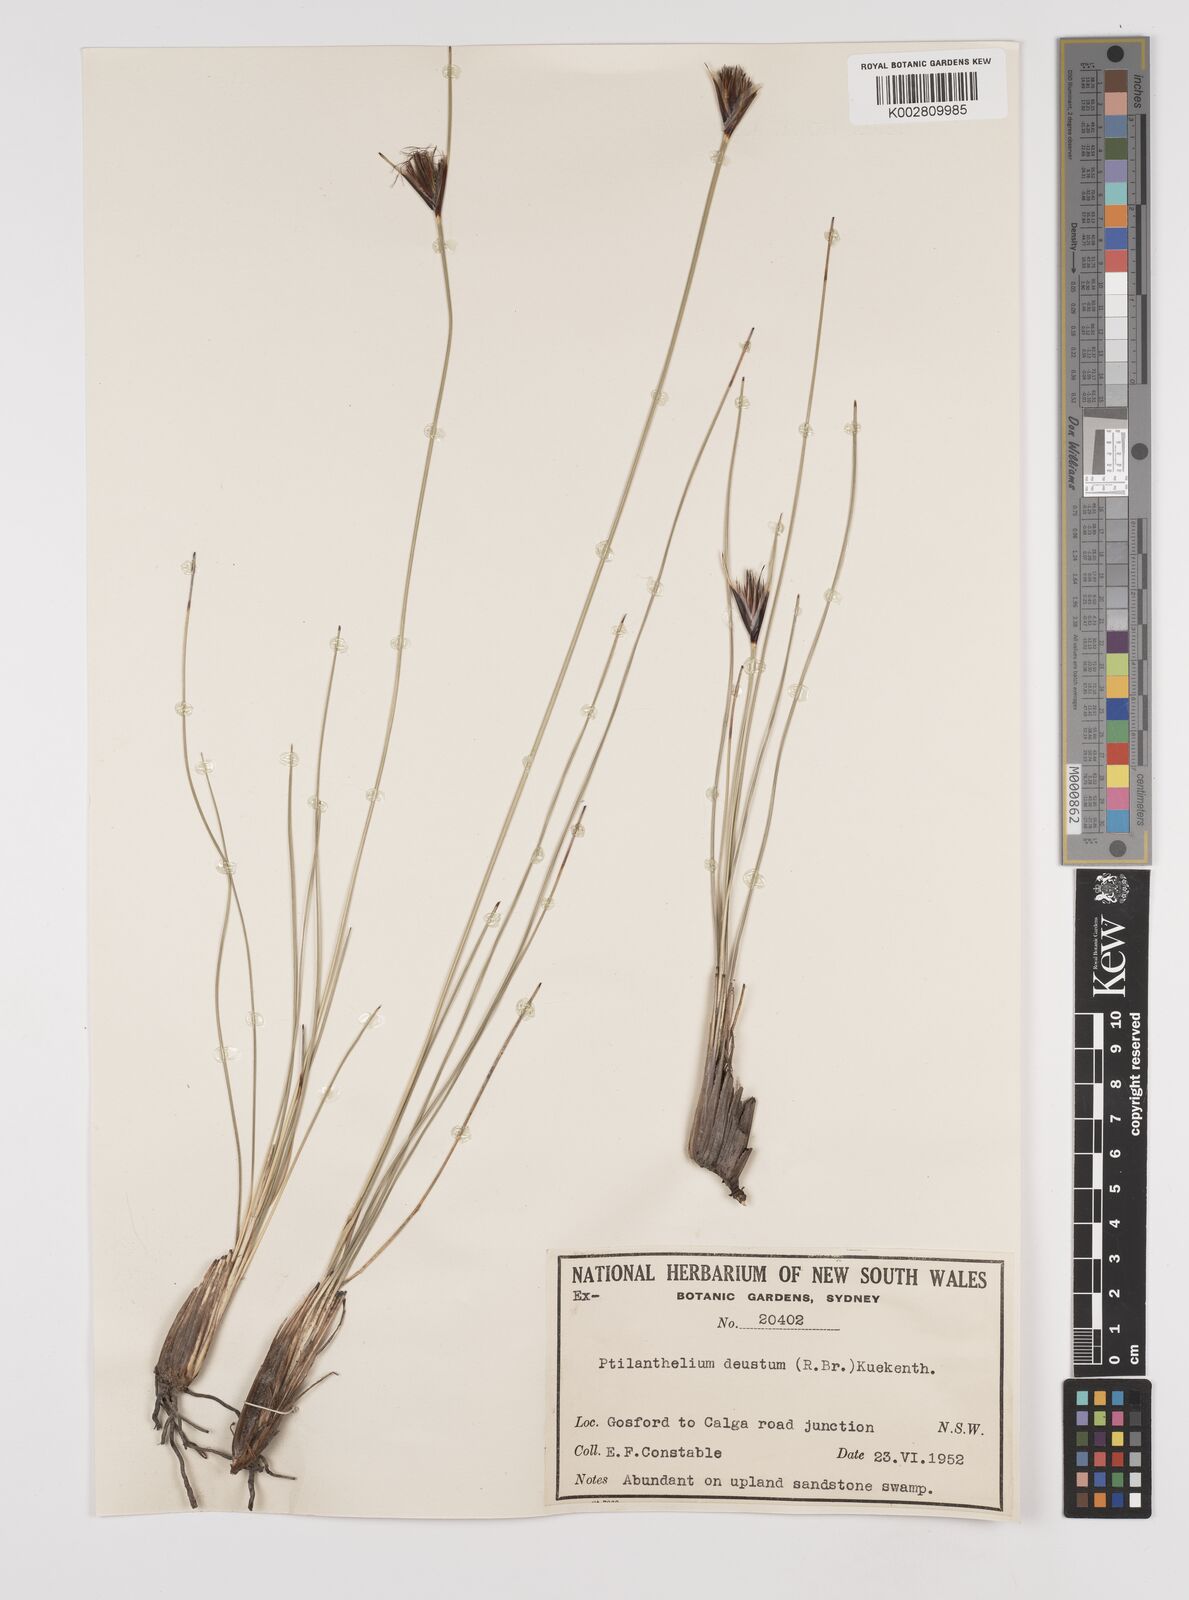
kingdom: Plantae
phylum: Tracheophyta
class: Liliopsida
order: Poales
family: Cyperaceae
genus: Ptilothrix
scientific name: Ptilothrix deusta
